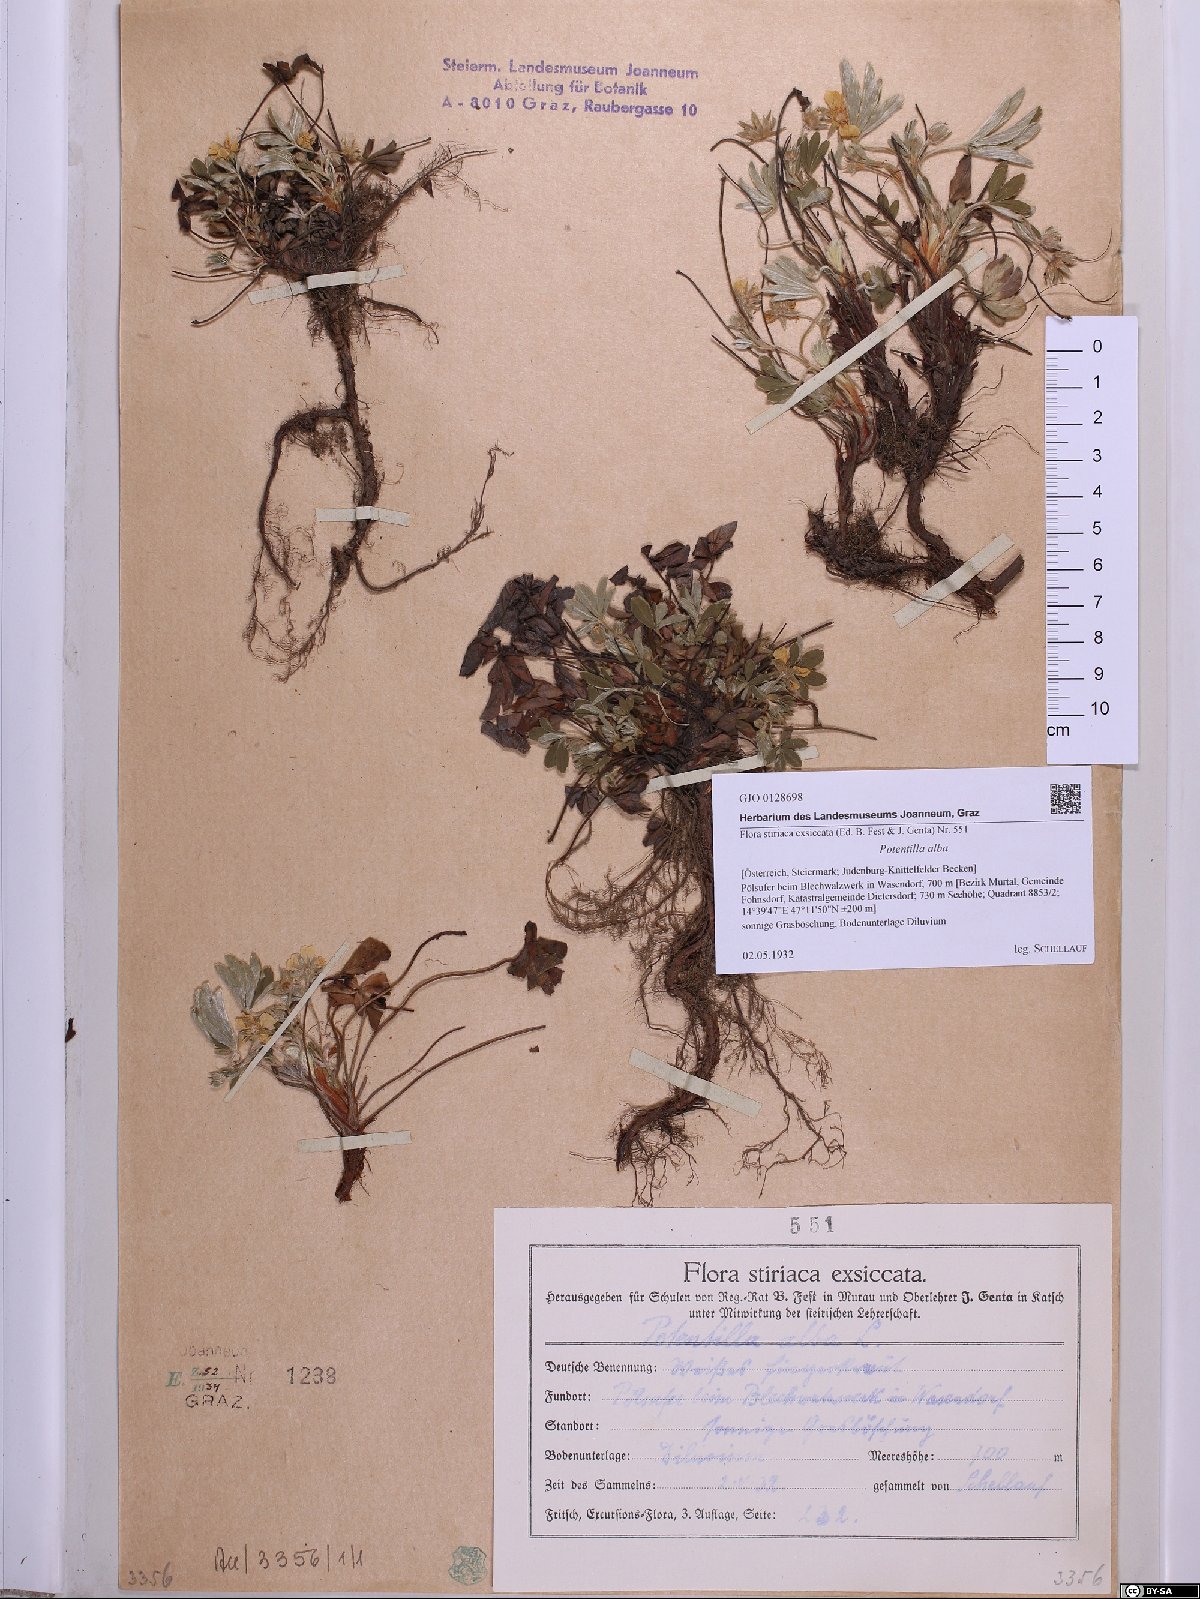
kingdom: Plantae
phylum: Tracheophyta
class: Magnoliopsida
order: Rosales
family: Rosaceae
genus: Potentilla
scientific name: Potentilla alba
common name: White cinquefoil
